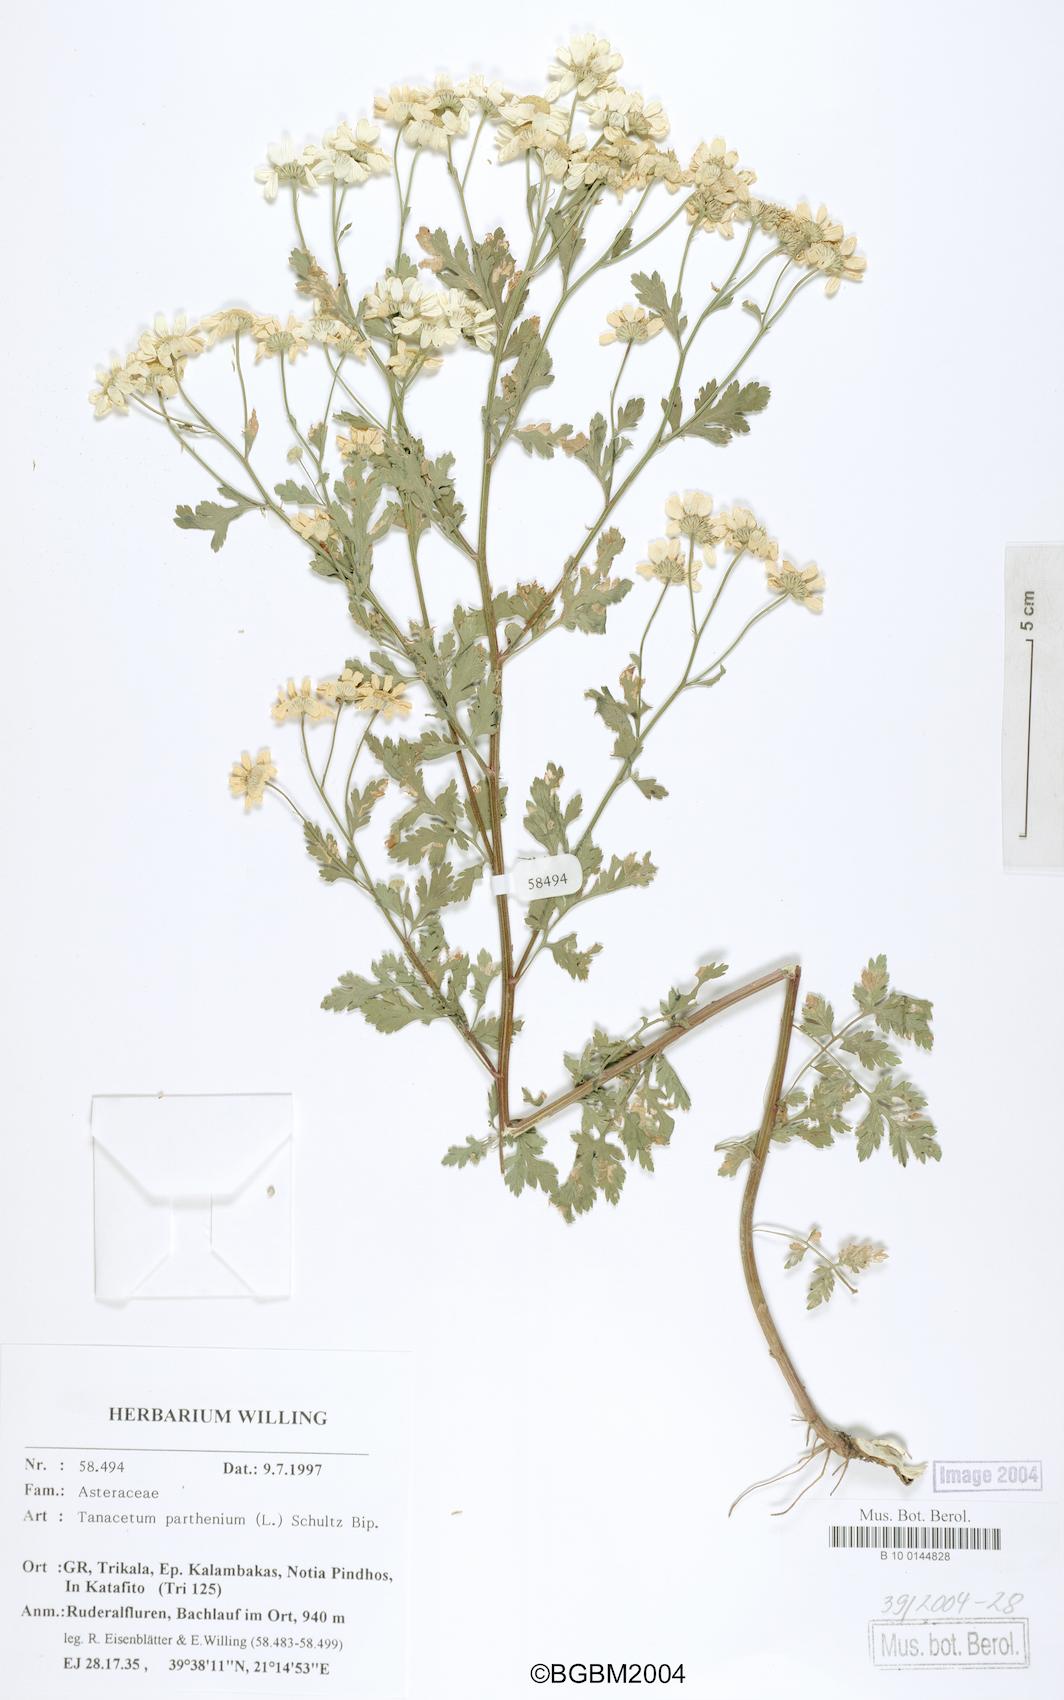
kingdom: Plantae
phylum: Tracheophyta
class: Magnoliopsida
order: Asterales
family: Asteraceae
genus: Tanacetum
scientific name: Tanacetum parthenium
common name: Feverfew
